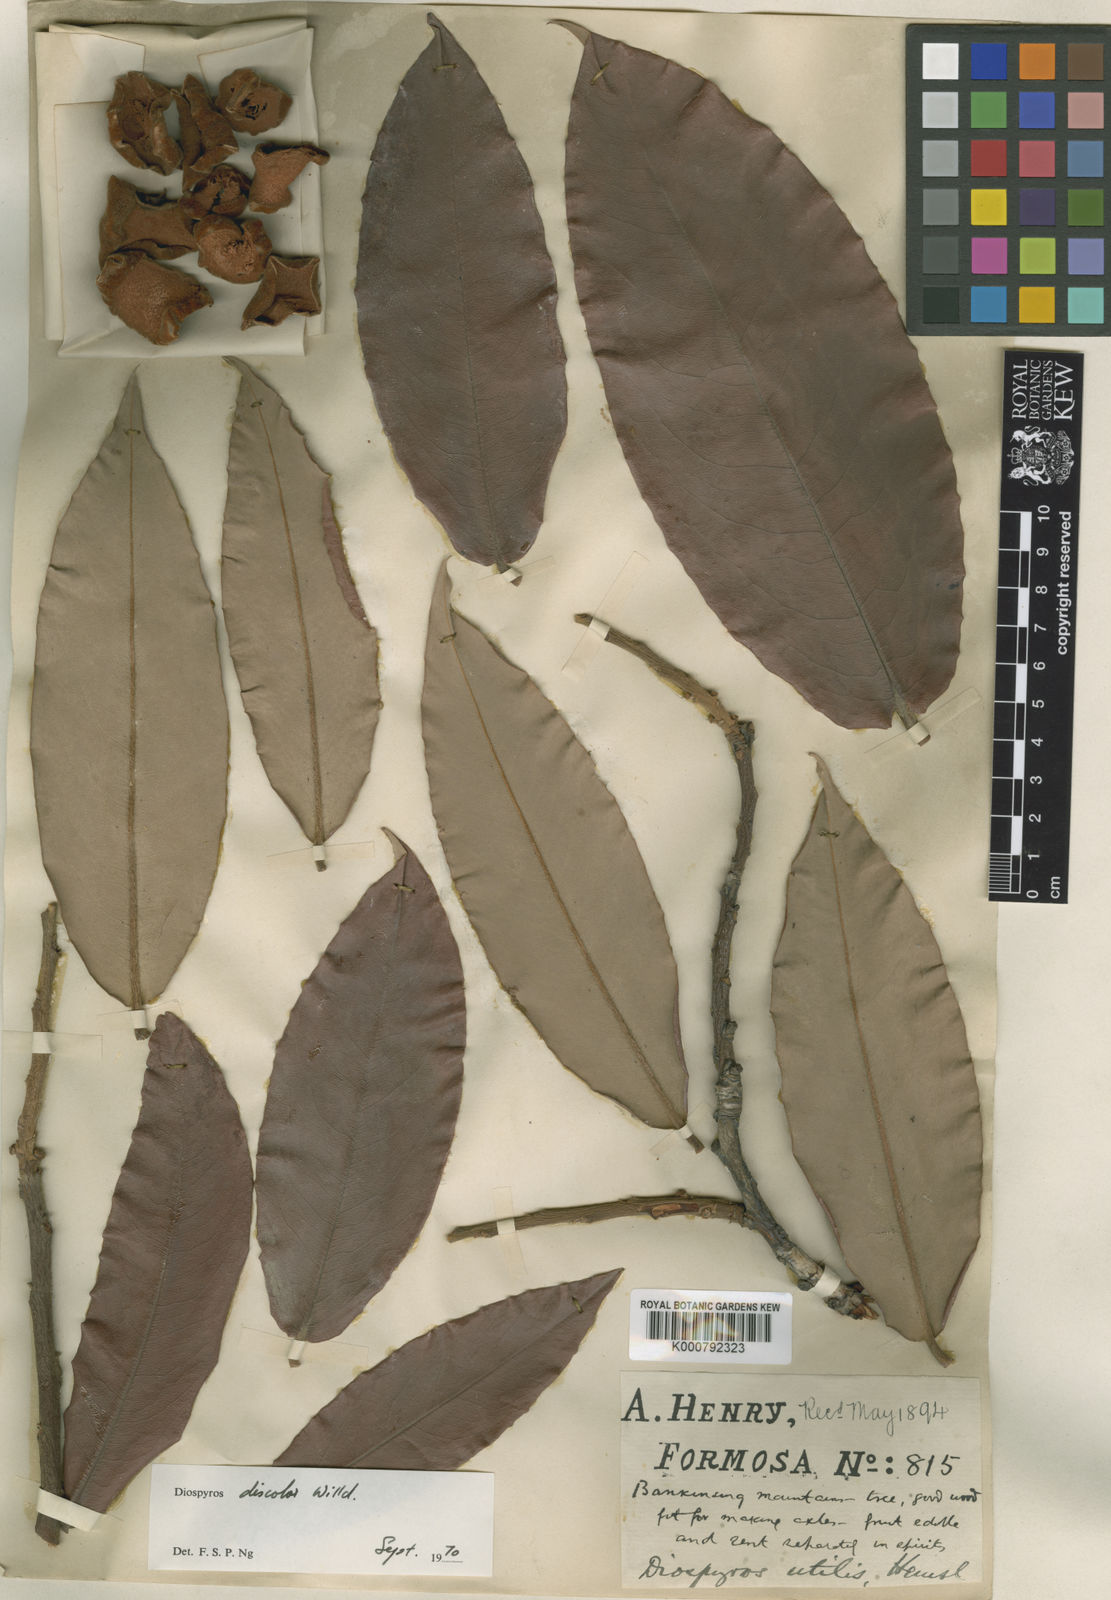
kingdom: Plantae
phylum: Tracheophyta
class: Magnoliopsida
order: Ericales
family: Ebenaceae
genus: Diospyros
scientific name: Diospyros blancoi
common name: Mabola-tree
